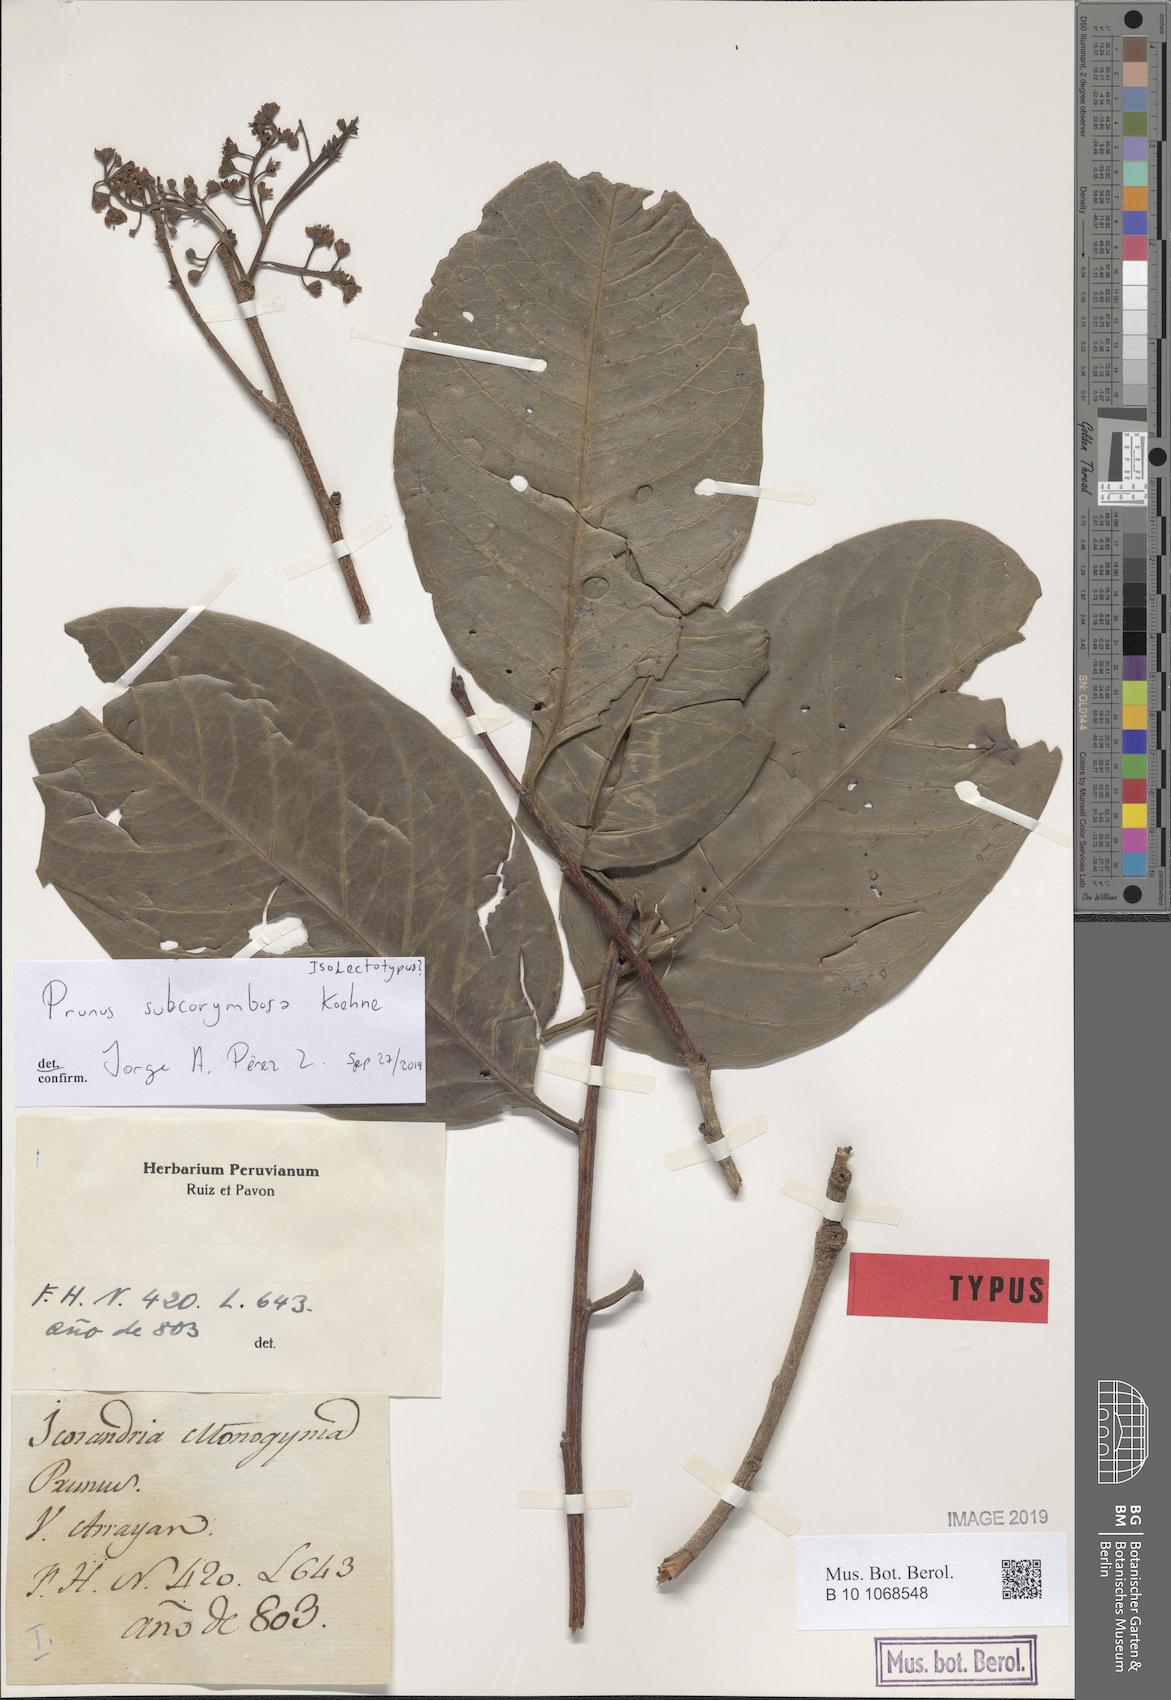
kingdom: Plantae
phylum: Tracheophyta
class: Magnoliopsida
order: Rosales
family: Rosaceae
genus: Prunus
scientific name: Prunus subcorymbosa
